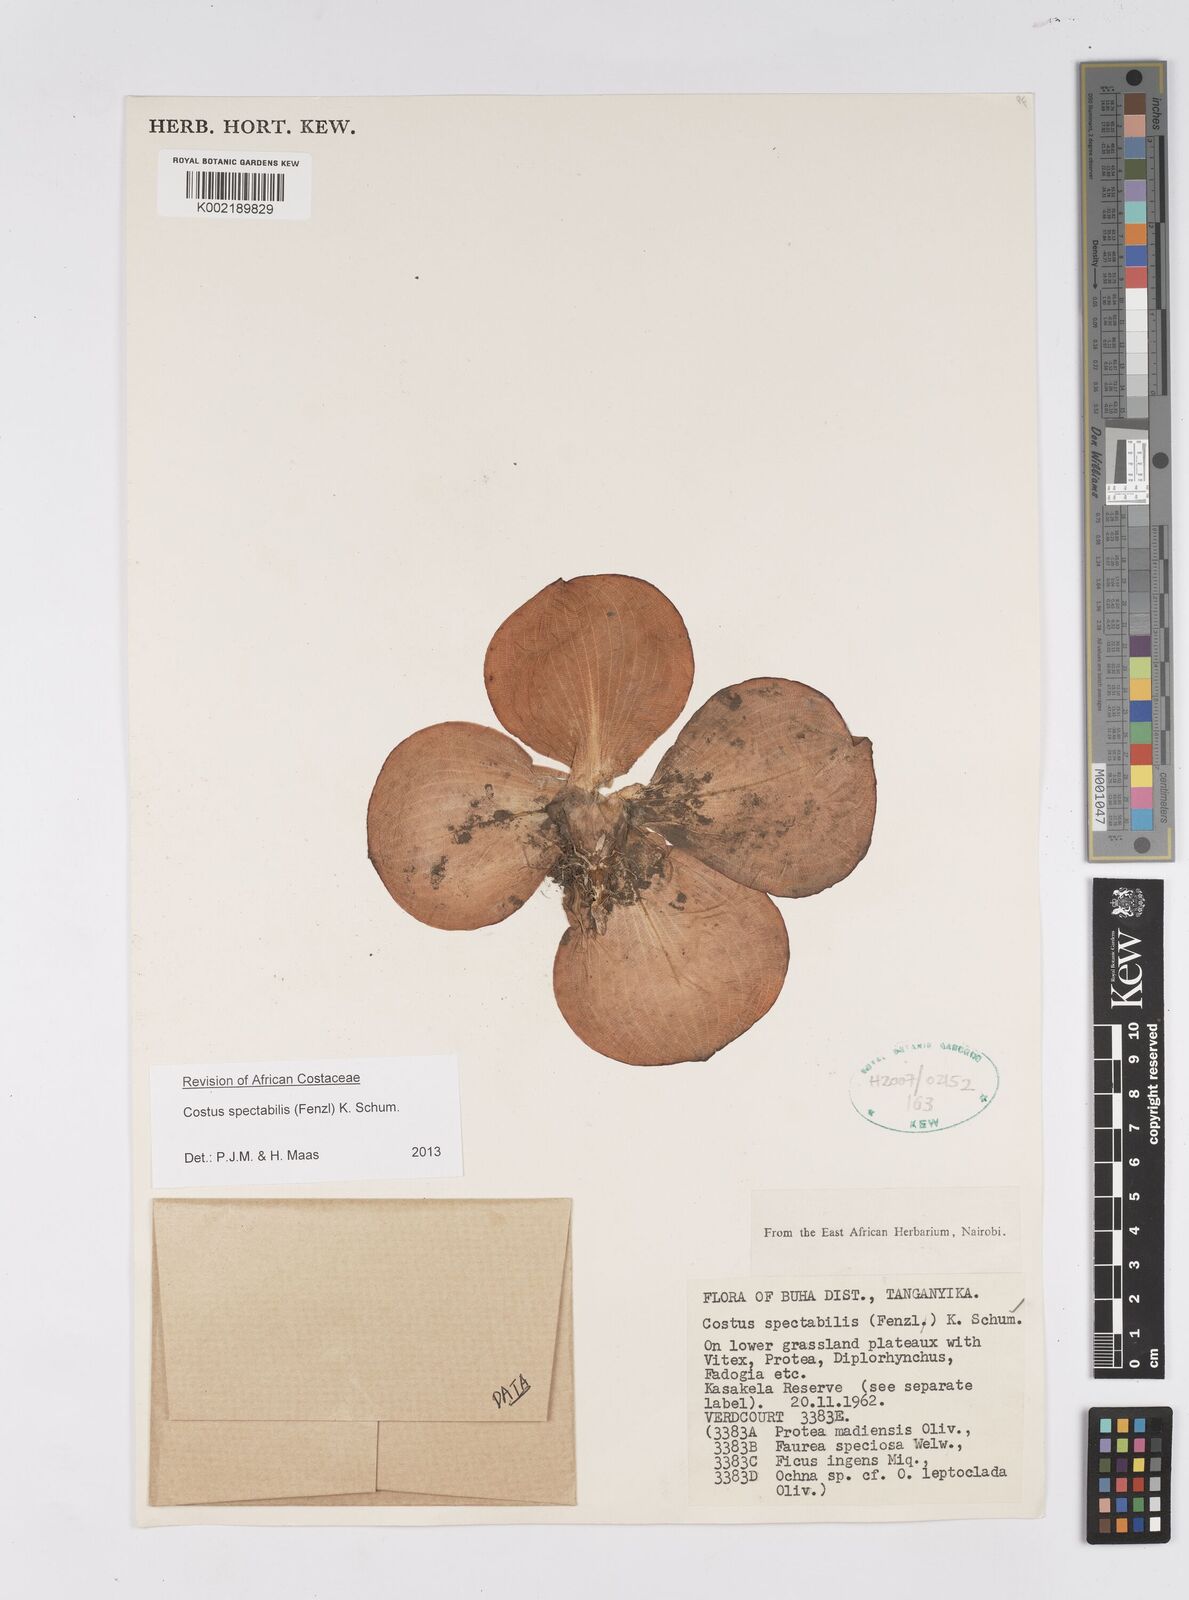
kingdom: Plantae
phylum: Tracheophyta
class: Liliopsida
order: Zingiberales
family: Costaceae
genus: Costus
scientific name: Costus spectabilis
